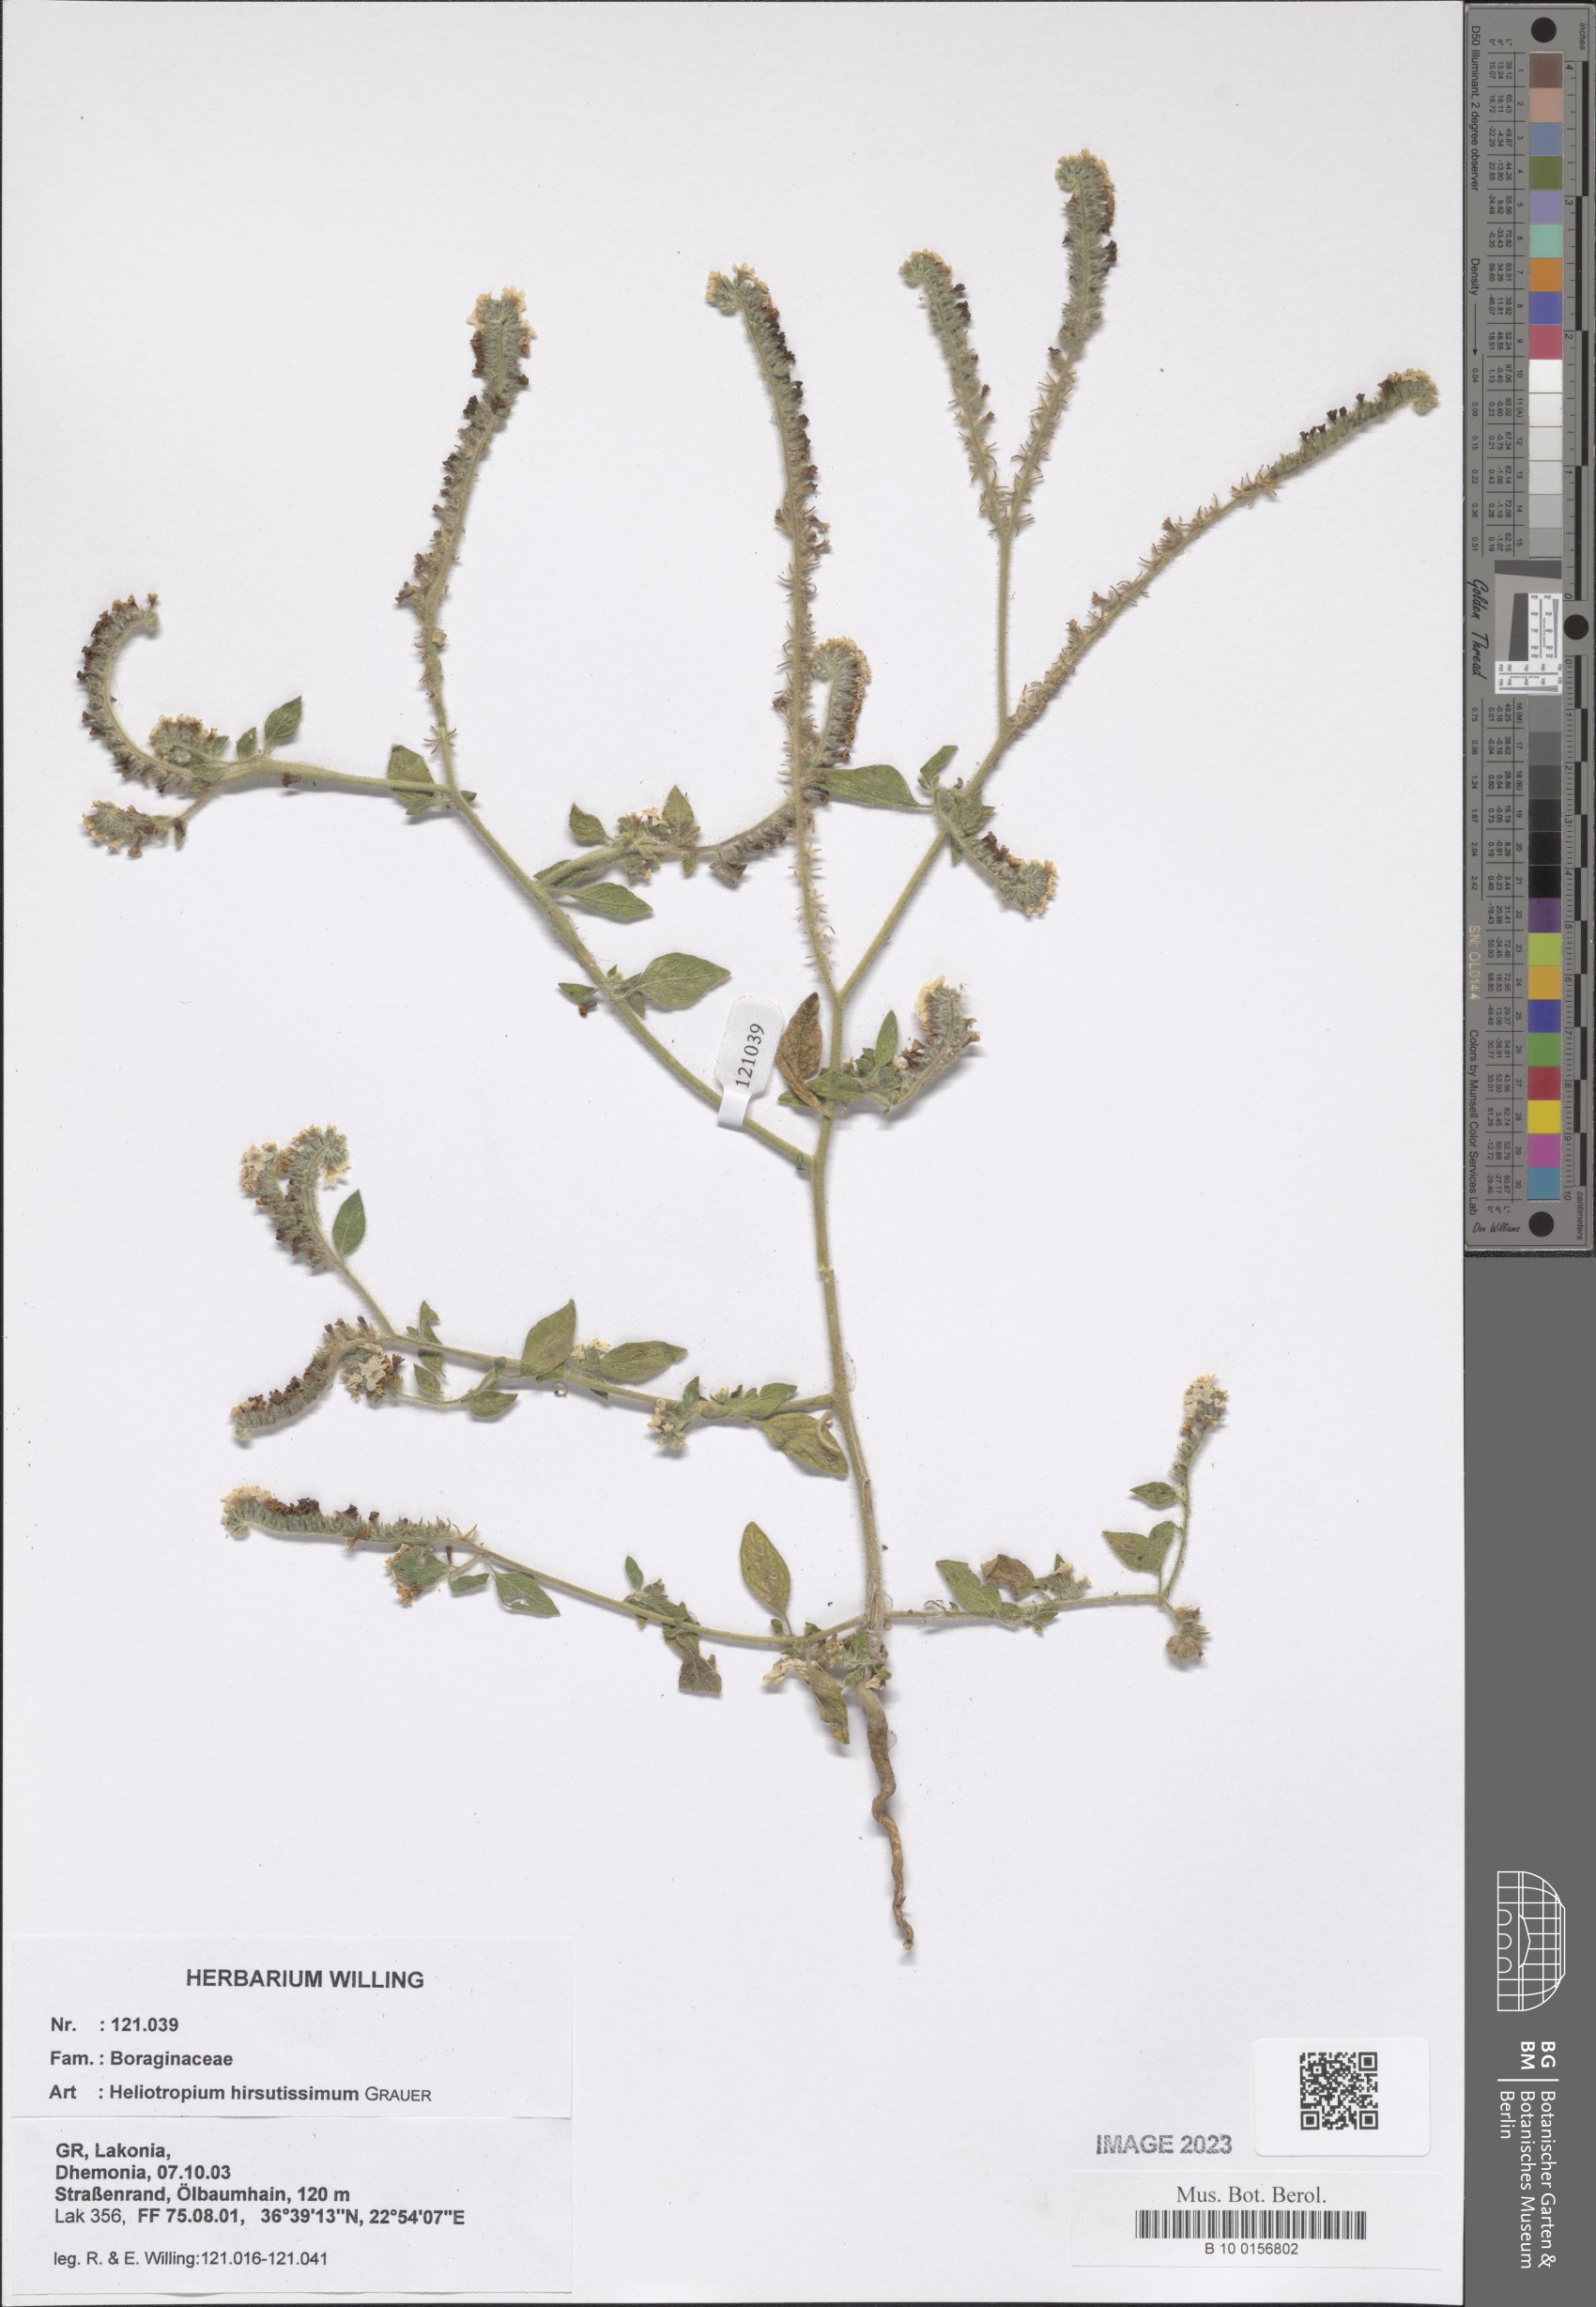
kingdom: Plantae
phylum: Tracheophyta
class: Magnoliopsida
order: Boraginales
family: Heliotropiaceae
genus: Heliotropium
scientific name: Heliotropium hirsutissimum
